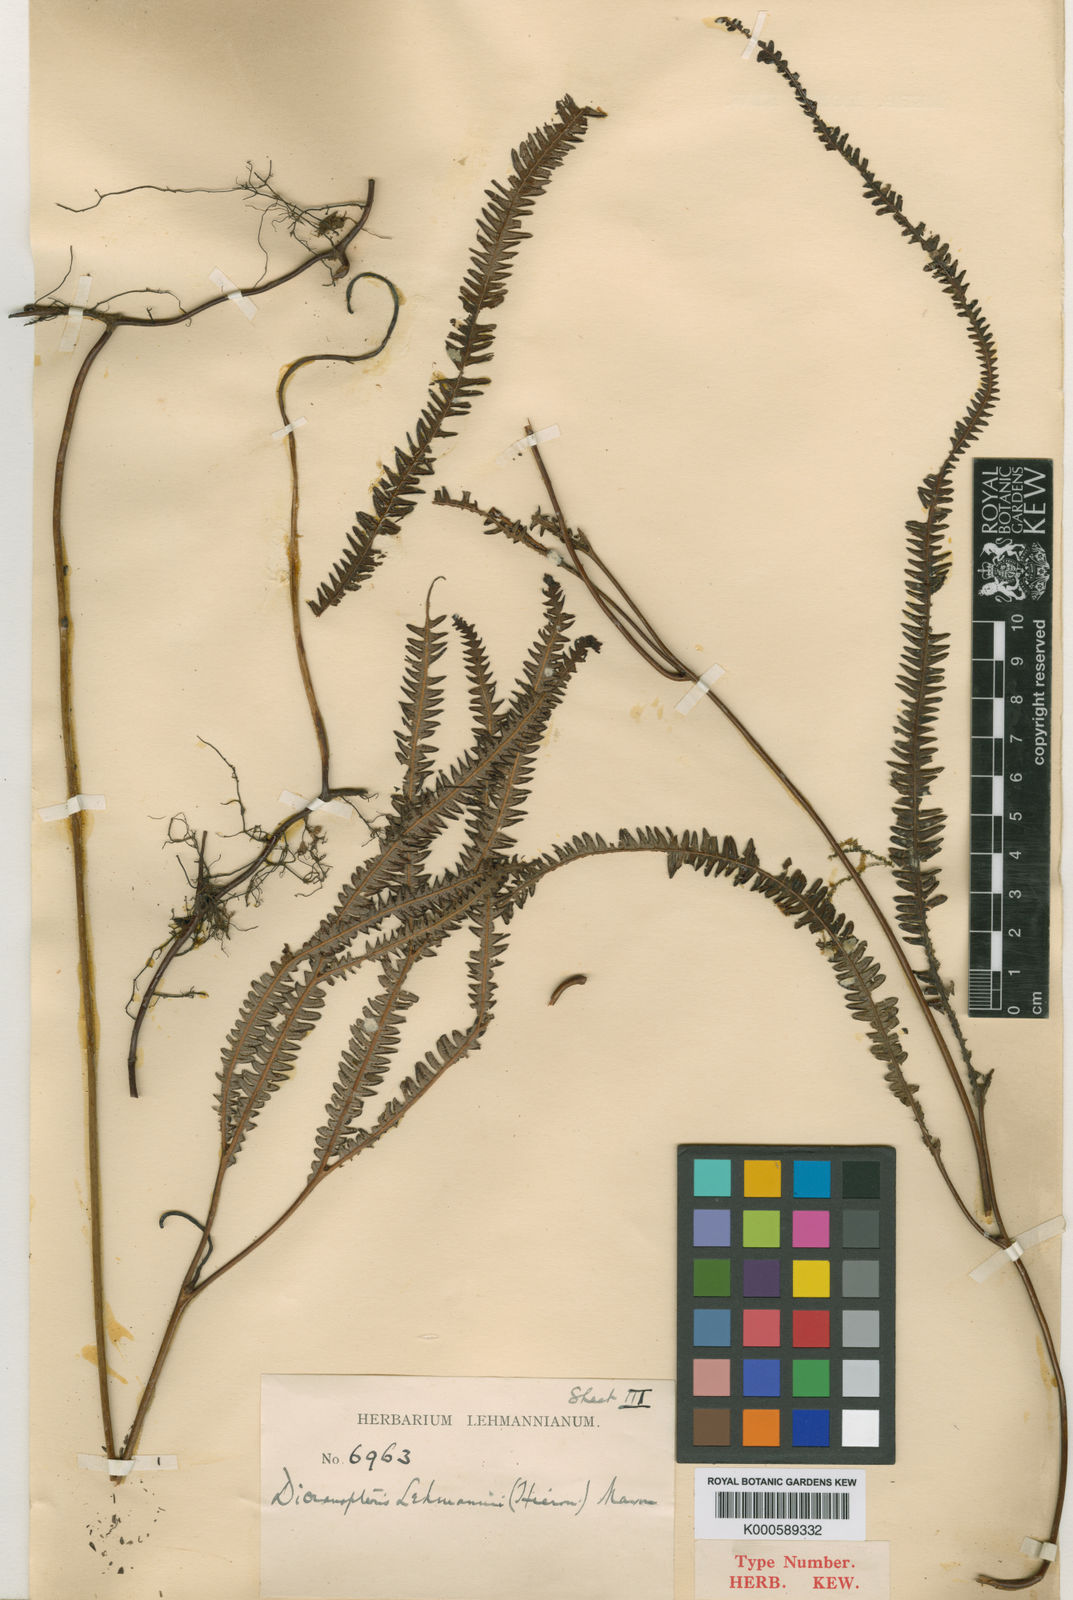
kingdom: Plantae
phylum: Tracheophyta
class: Polypodiopsida
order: Gleicheniales
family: Gleicheniaceae
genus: Sticherus
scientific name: Sticherus hypoleucus
